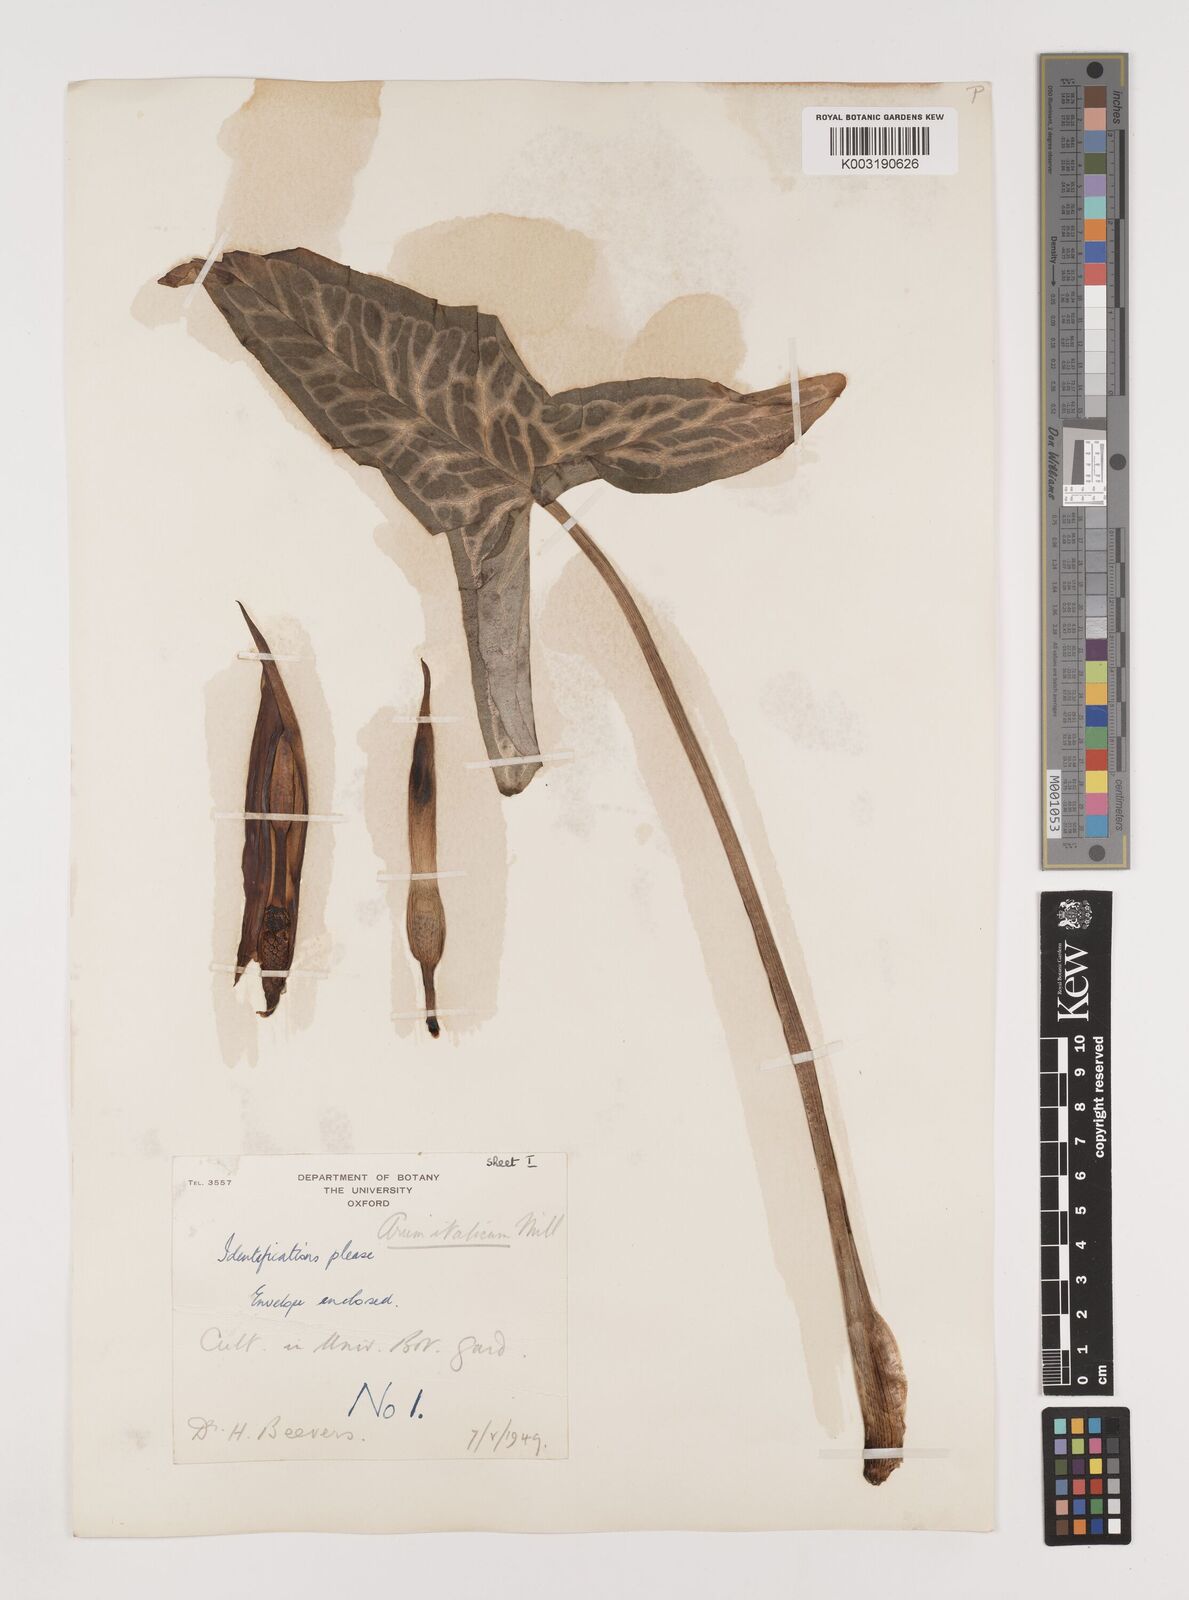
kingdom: Plantae
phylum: Tracheophyta
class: Liliopsida
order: Alismatales
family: Araceae
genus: Arum
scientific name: Arum italicum
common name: Italian lords-and-ladies
